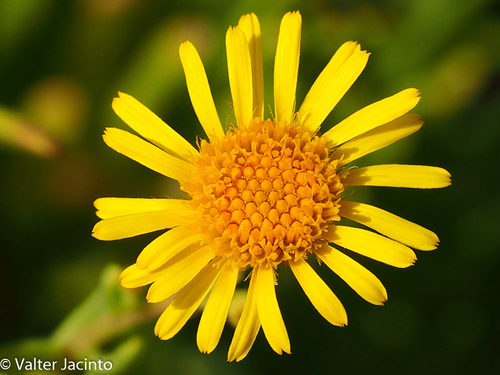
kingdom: Plantae
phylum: Tracheophyta
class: Magnoliopsida
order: Asterales
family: Asteraceae
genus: Limbarda
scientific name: Limbarda crithmoides
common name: Golden samphire
